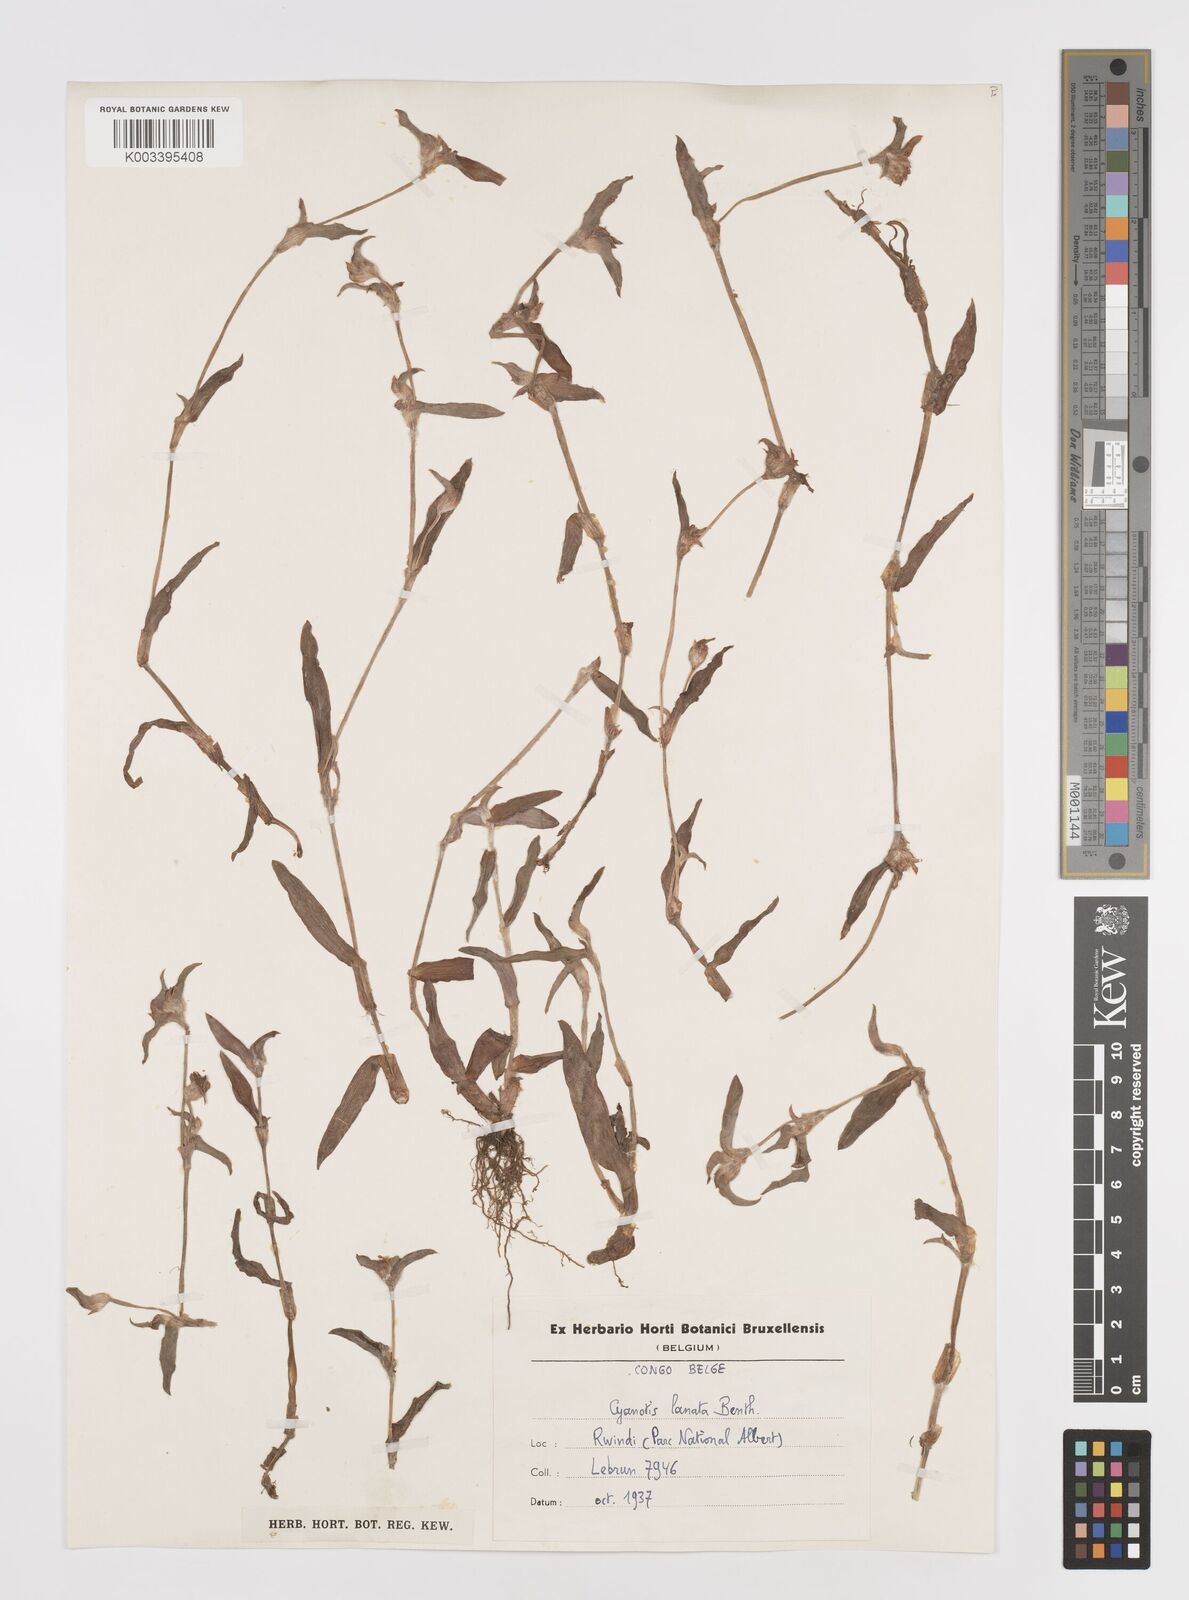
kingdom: Plantae
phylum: Tracheophyta
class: Liliopsida
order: Commelinales
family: Commelinaceae
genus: Cyanotis
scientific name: Cyanotis lanata
